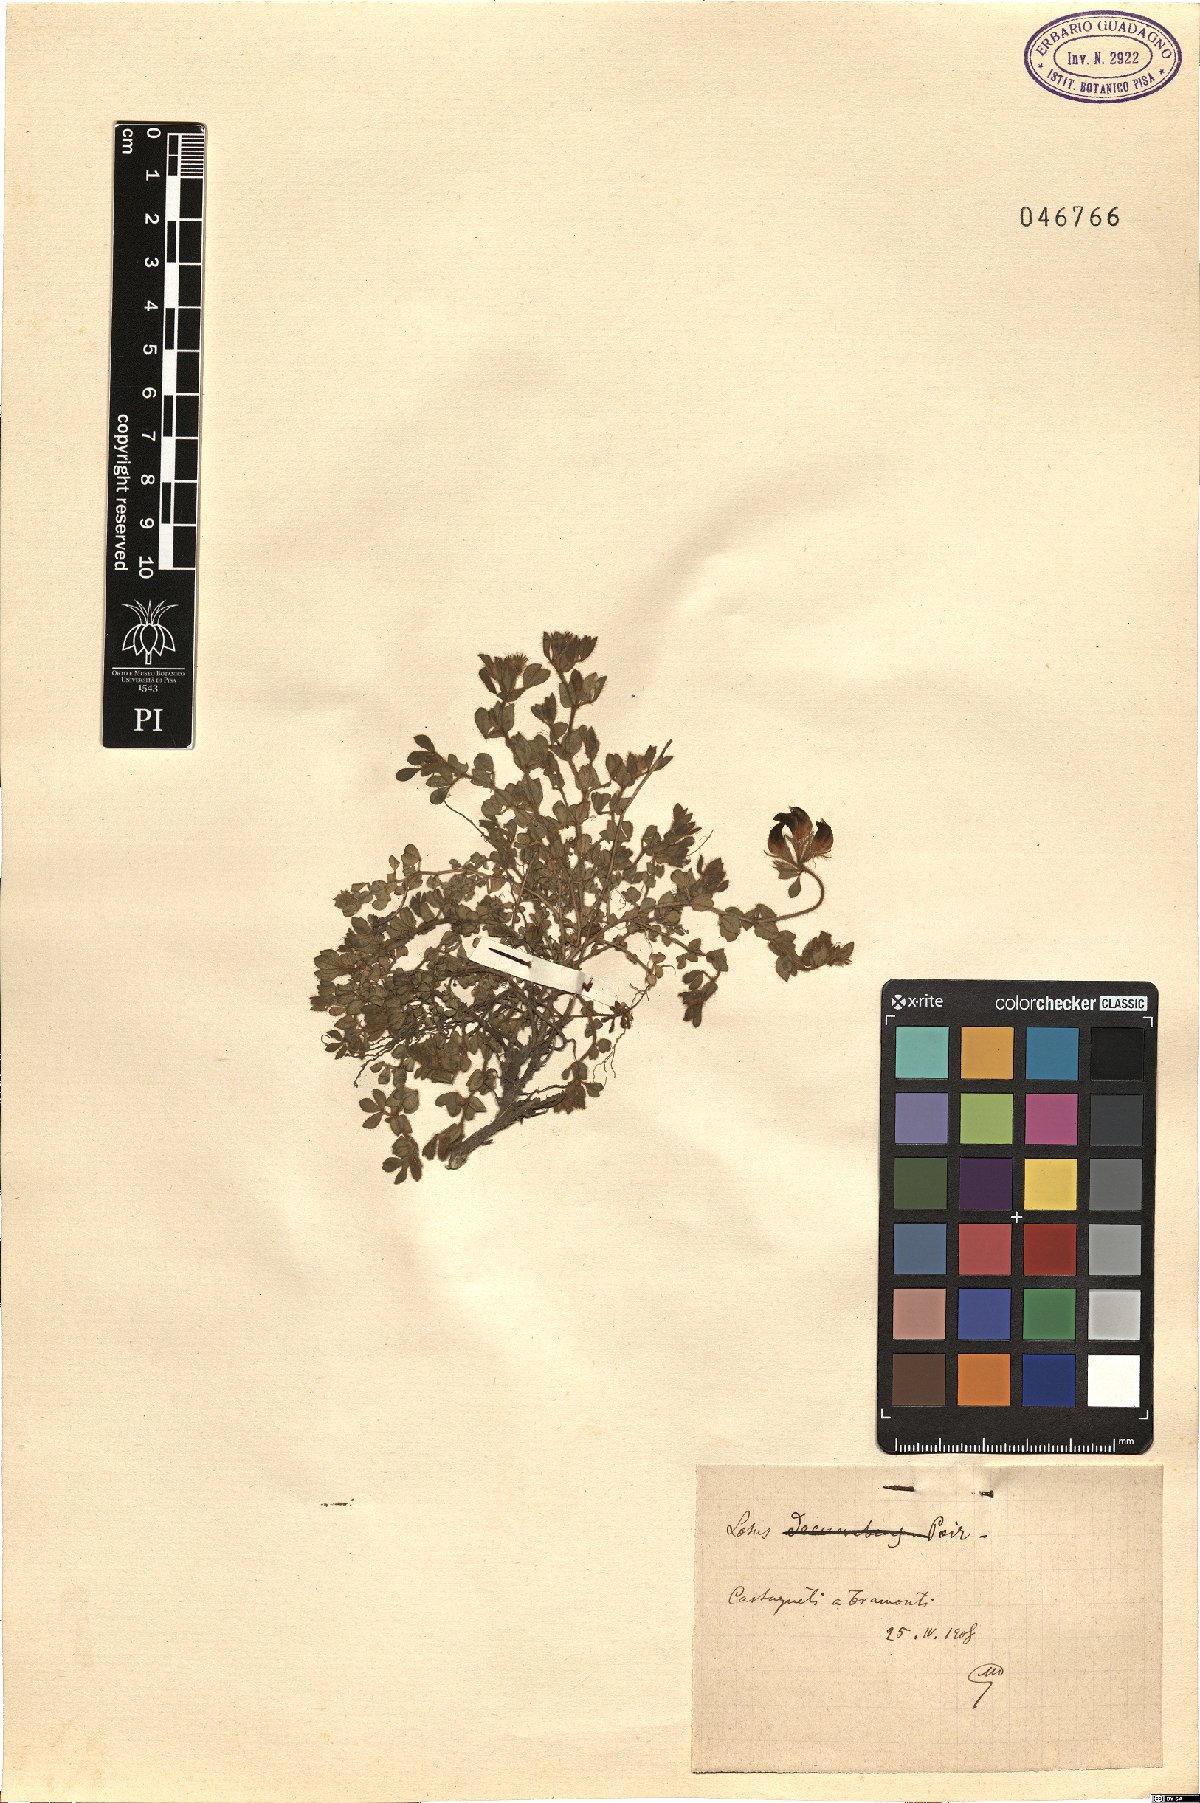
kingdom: Plantae
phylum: Tracheophyta
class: Magnoliopsida
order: Fabales
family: Fabaceae
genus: Lotus
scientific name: Lotus
